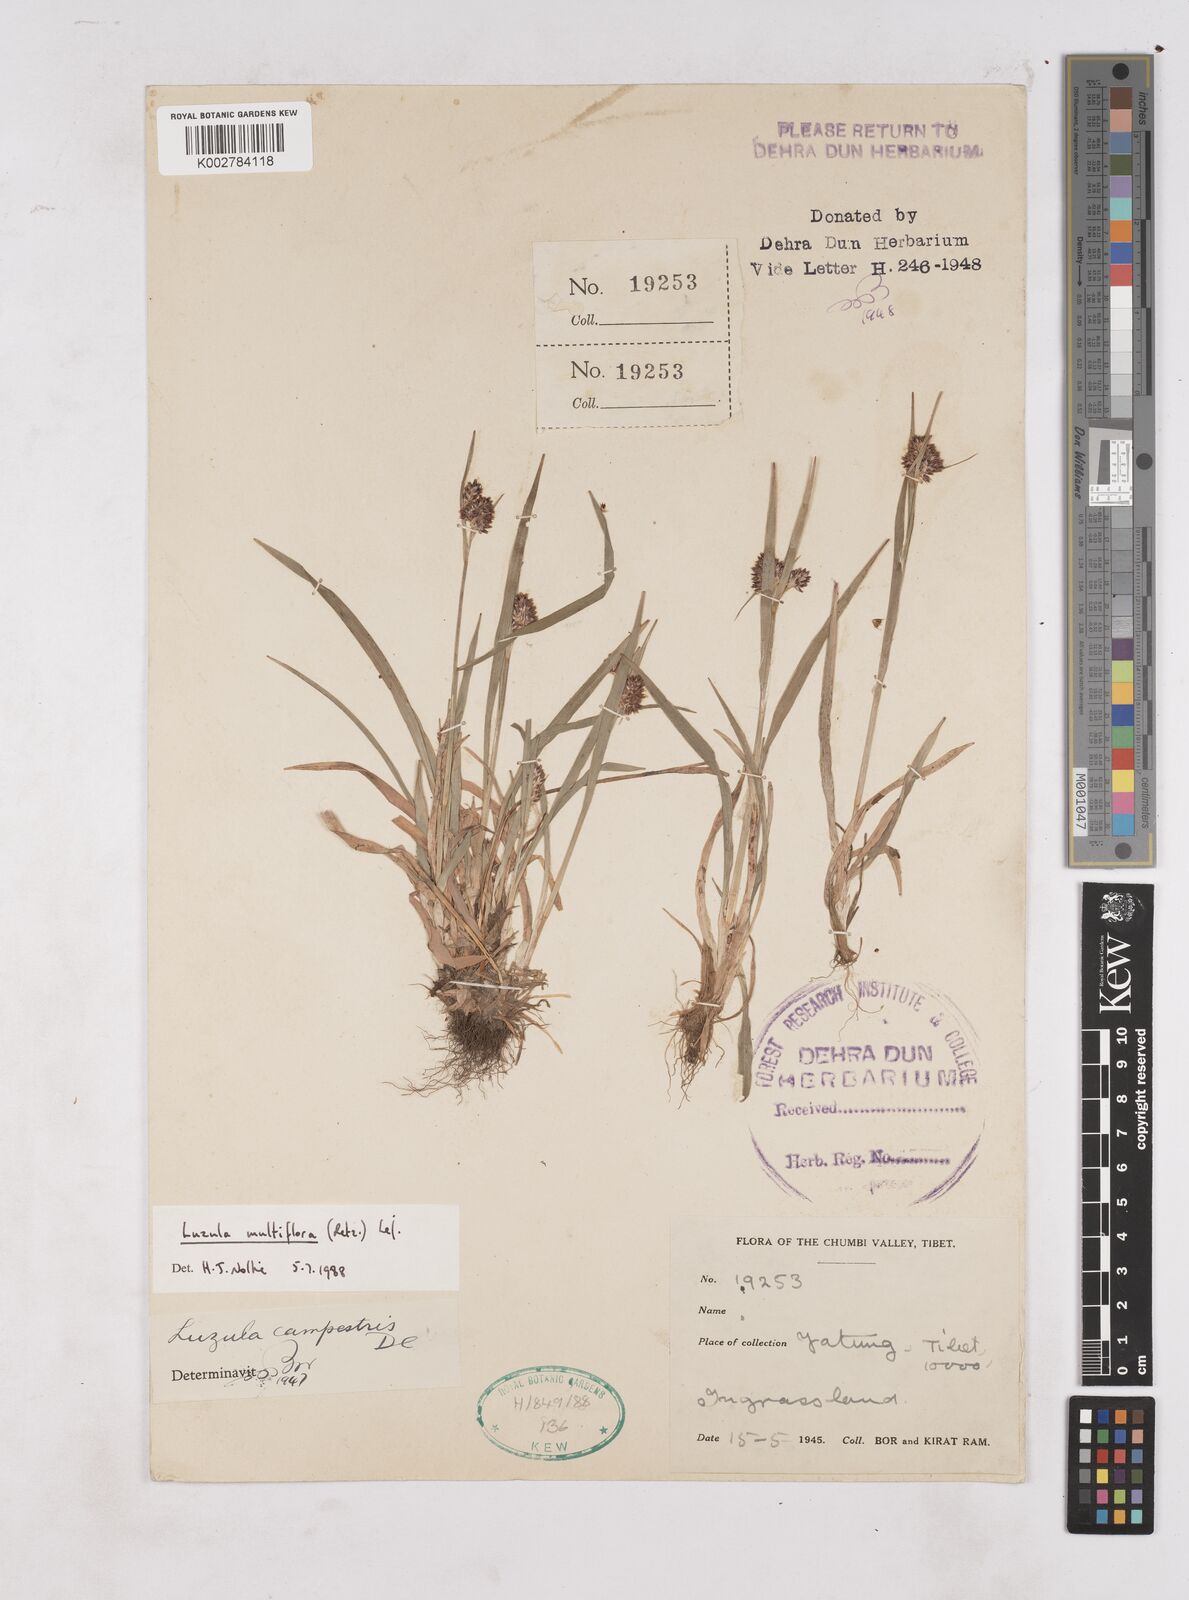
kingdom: Plantae
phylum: Tracheophyta
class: Liliopsida
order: Poales
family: Juncaceae
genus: Luzula
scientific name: Luzula multiflora
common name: Heath wood-rush
